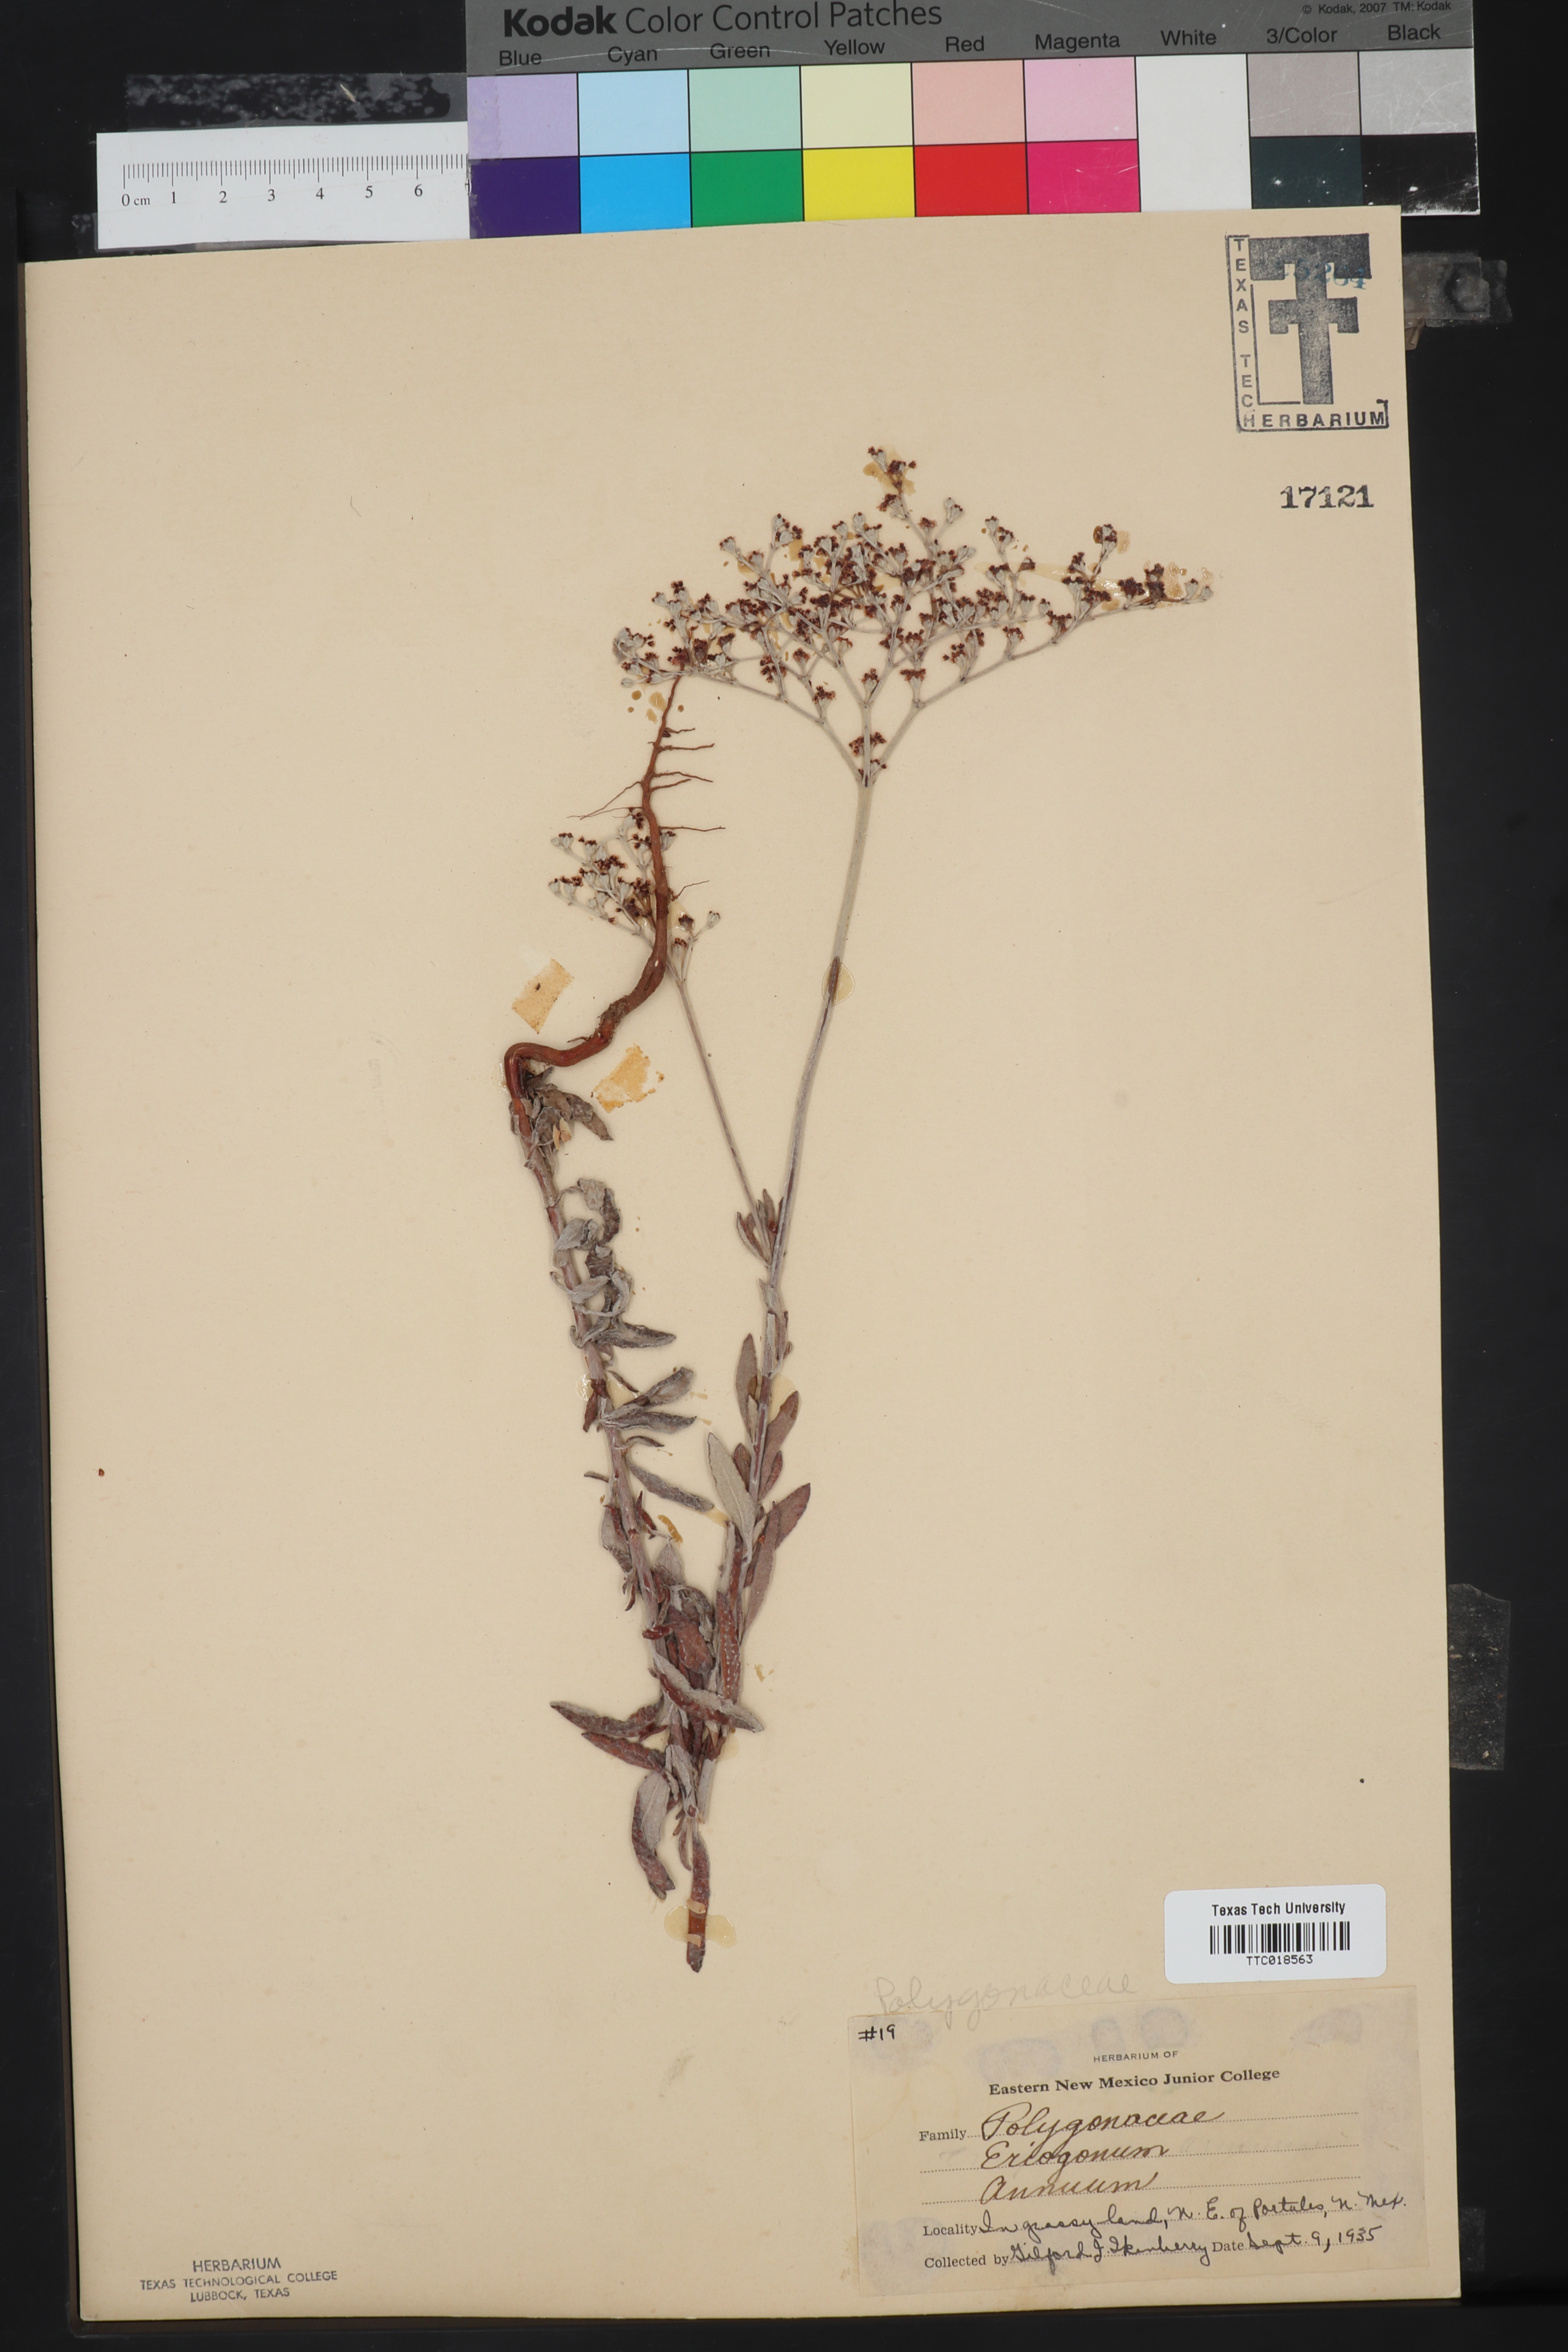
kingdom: Plantae
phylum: Tracheophyta
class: Magnoliopsida
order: Caryophyllales
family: Polygonaceae
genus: Eriogonum
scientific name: Eriogonum annuum
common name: Annual wild buckwheat
